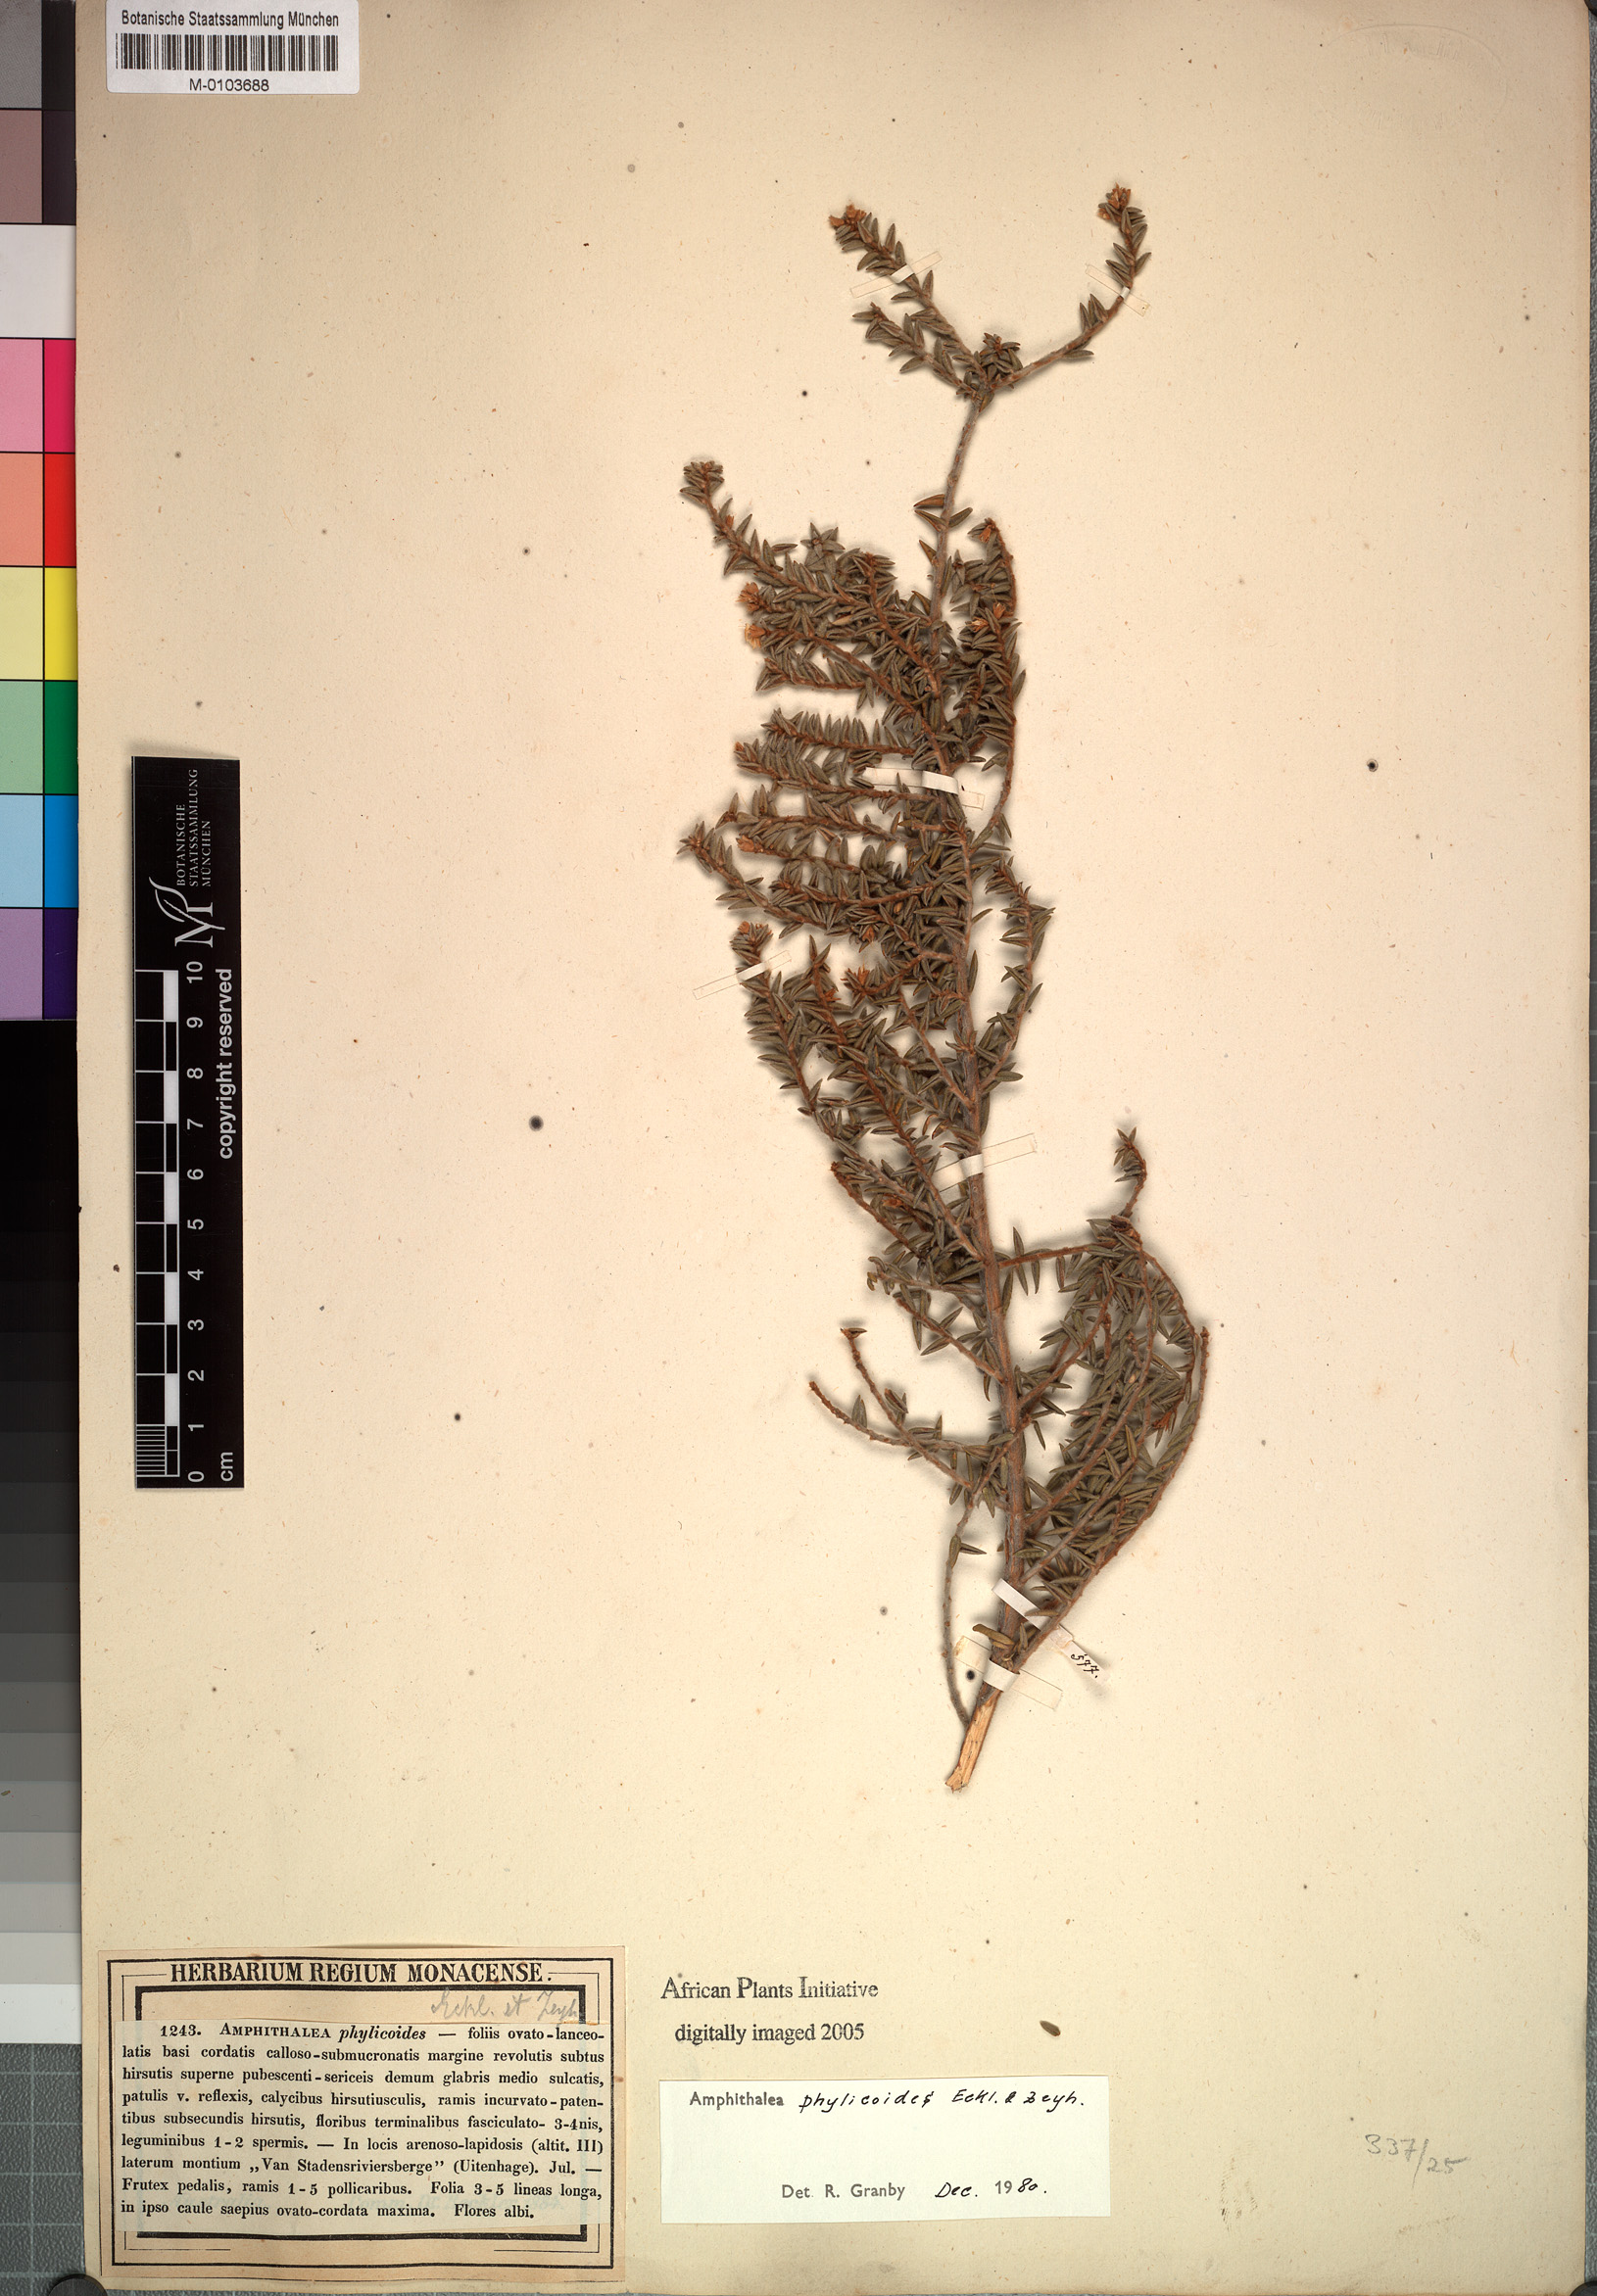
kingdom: Plantae
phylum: Tracheophyta
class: Magnoliopsida
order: Fabales
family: Fabaceae
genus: Amphithalea
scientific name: Amphithalea phylicoides
